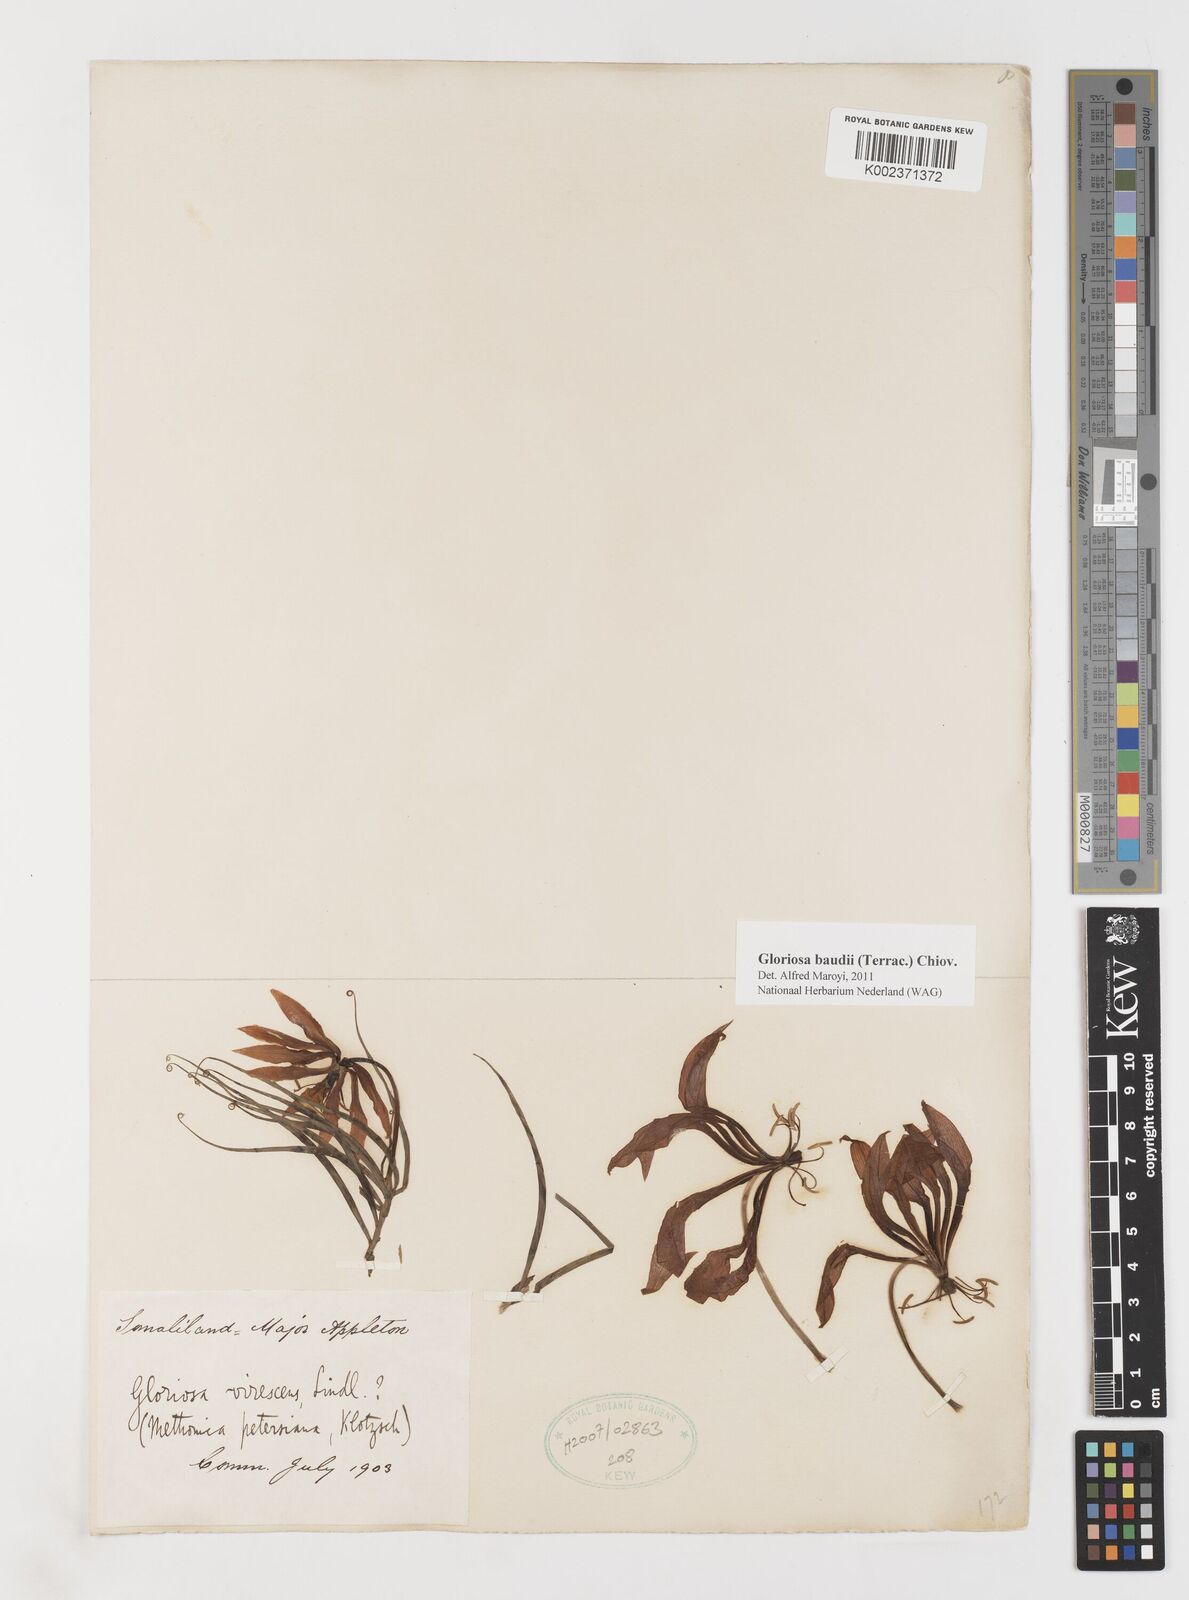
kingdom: Plantae
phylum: Tracheophyta
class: Liliopsida
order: Liliales
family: Colchicaceae
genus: Gloriosa
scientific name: Gloriosa baudii
